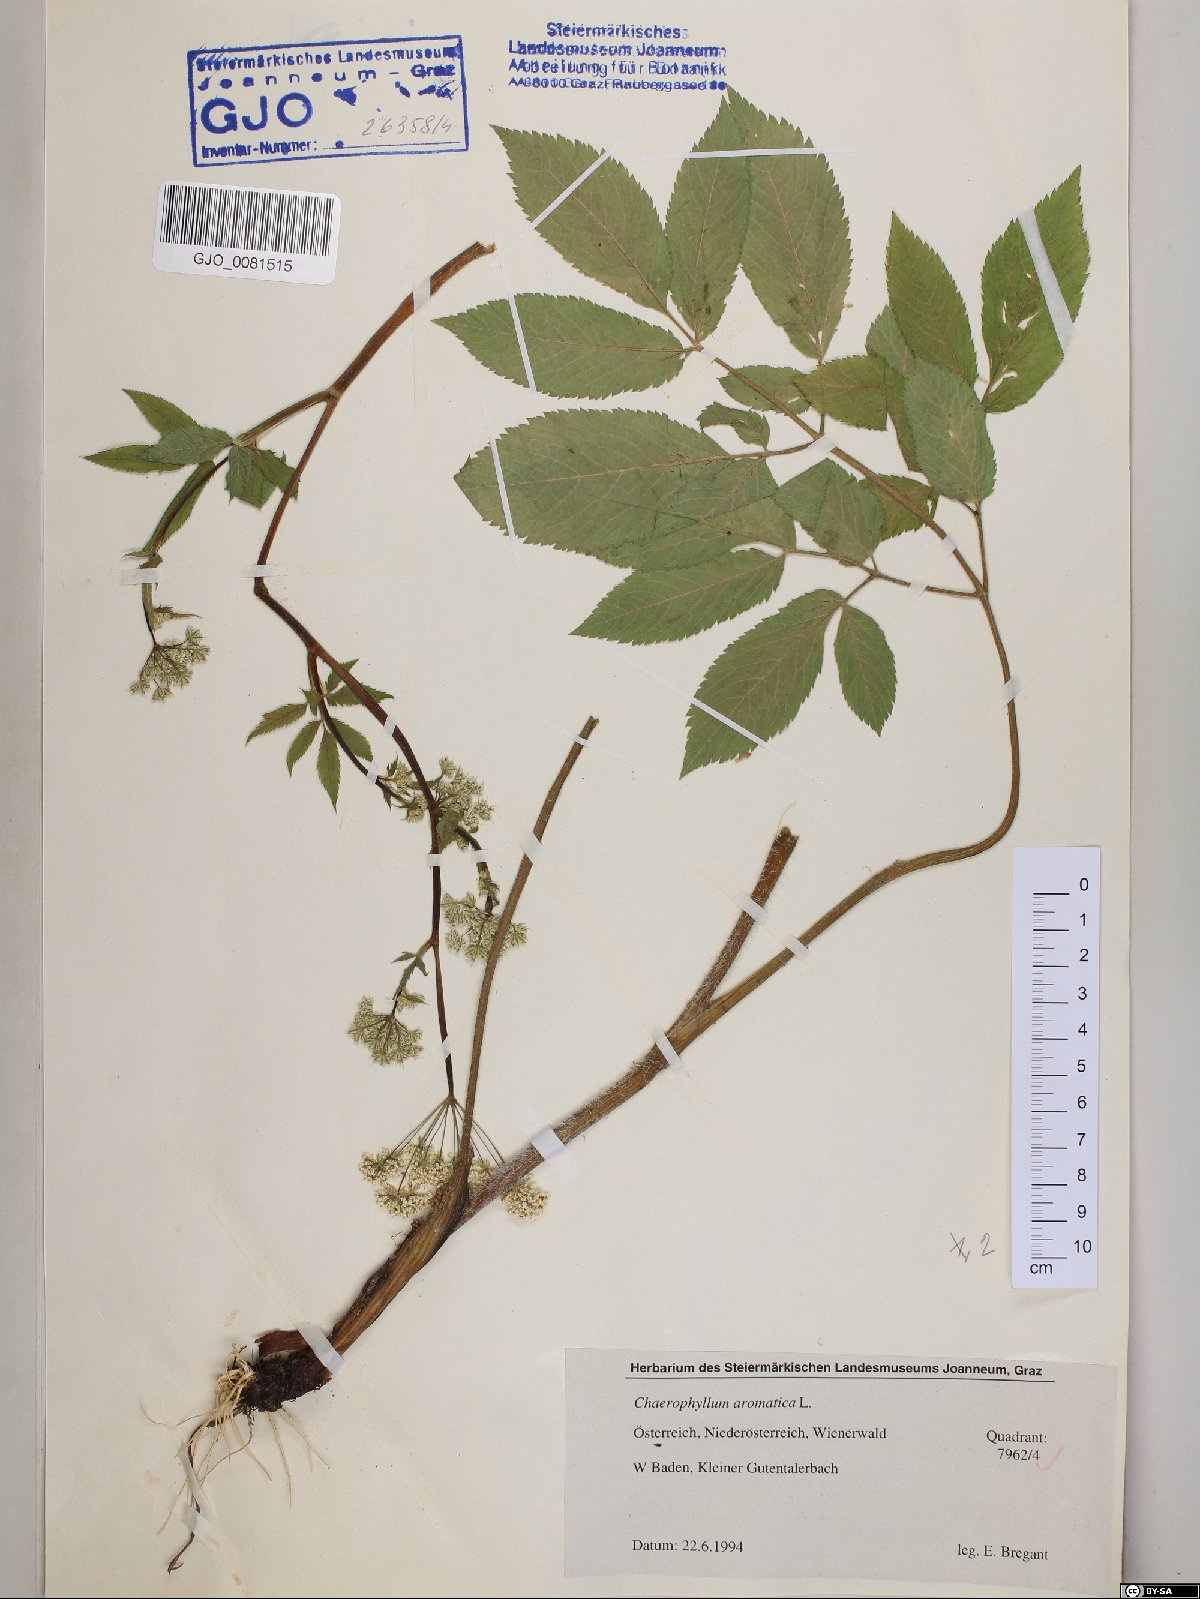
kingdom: Plantae
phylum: Tracheophyta
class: Magnoliopsida
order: Apiales
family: Apiaceae
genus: Chaerophyllum
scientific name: Chaerophyllum aromaticum
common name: Broadleaf chervil
